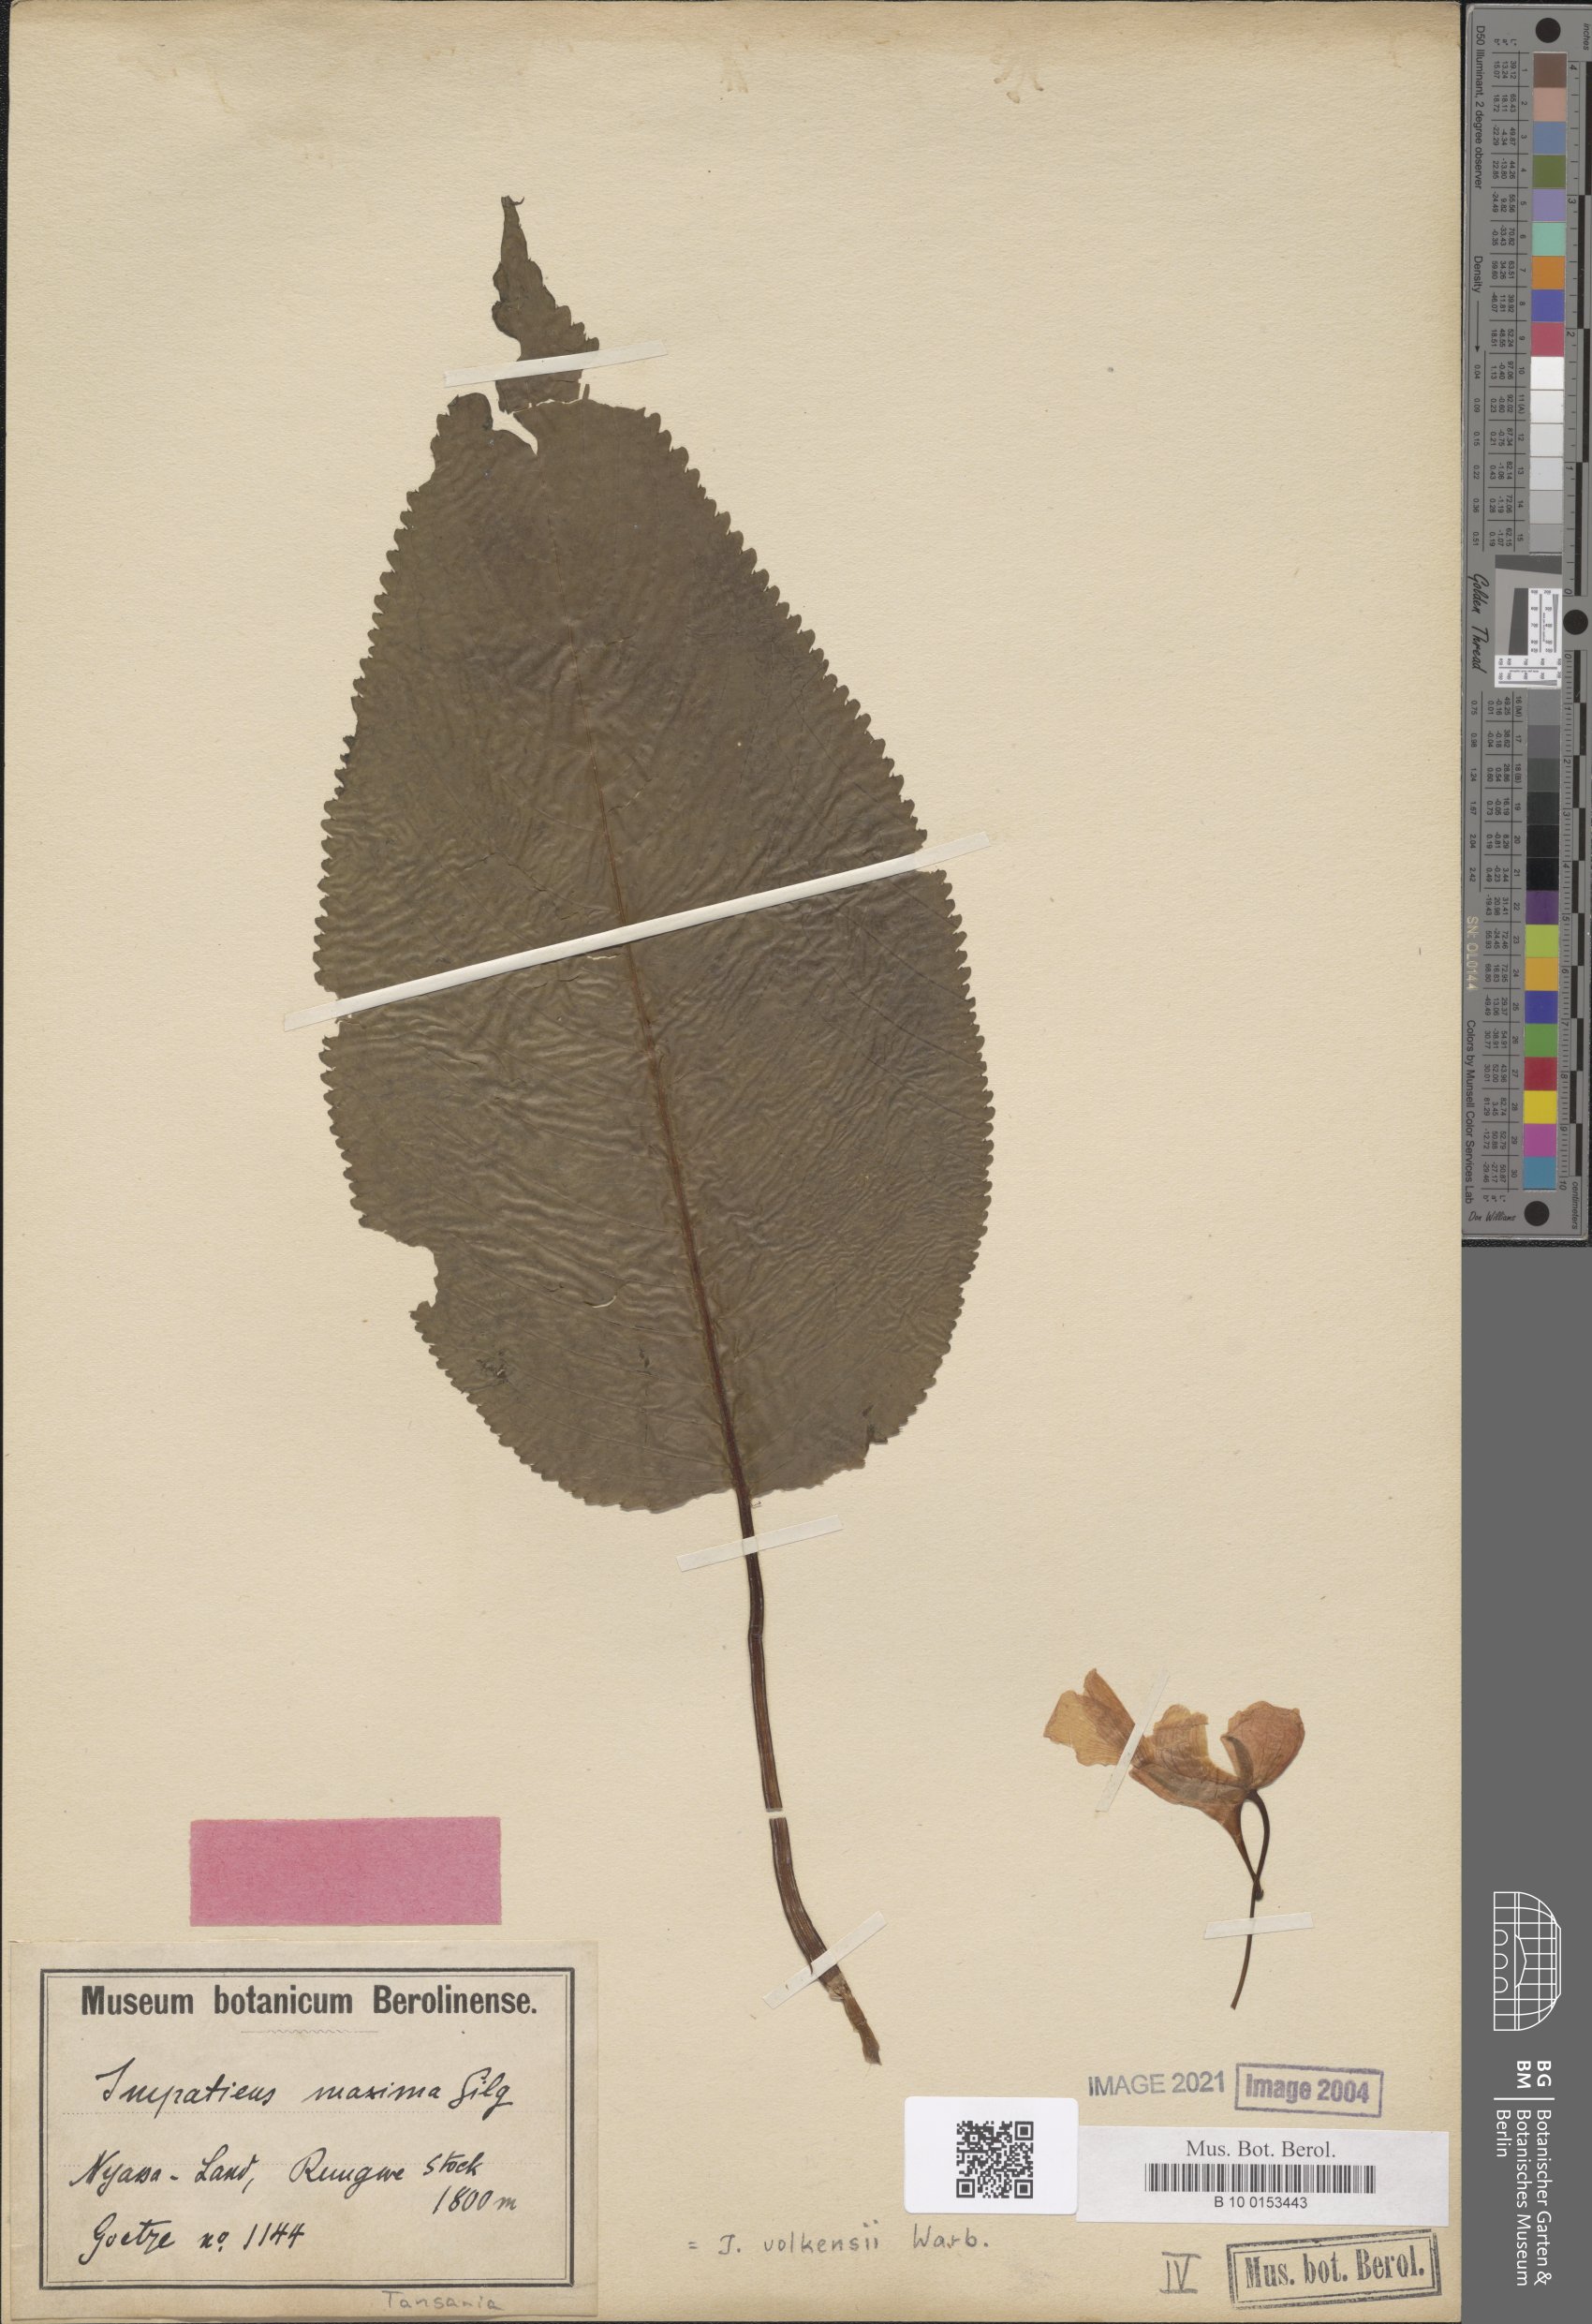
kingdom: Plantae
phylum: Tracheophyta
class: Magnoliopsida
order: Ericales
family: Balsaminaceae
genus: Impatiens
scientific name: Impatiens volkensii
